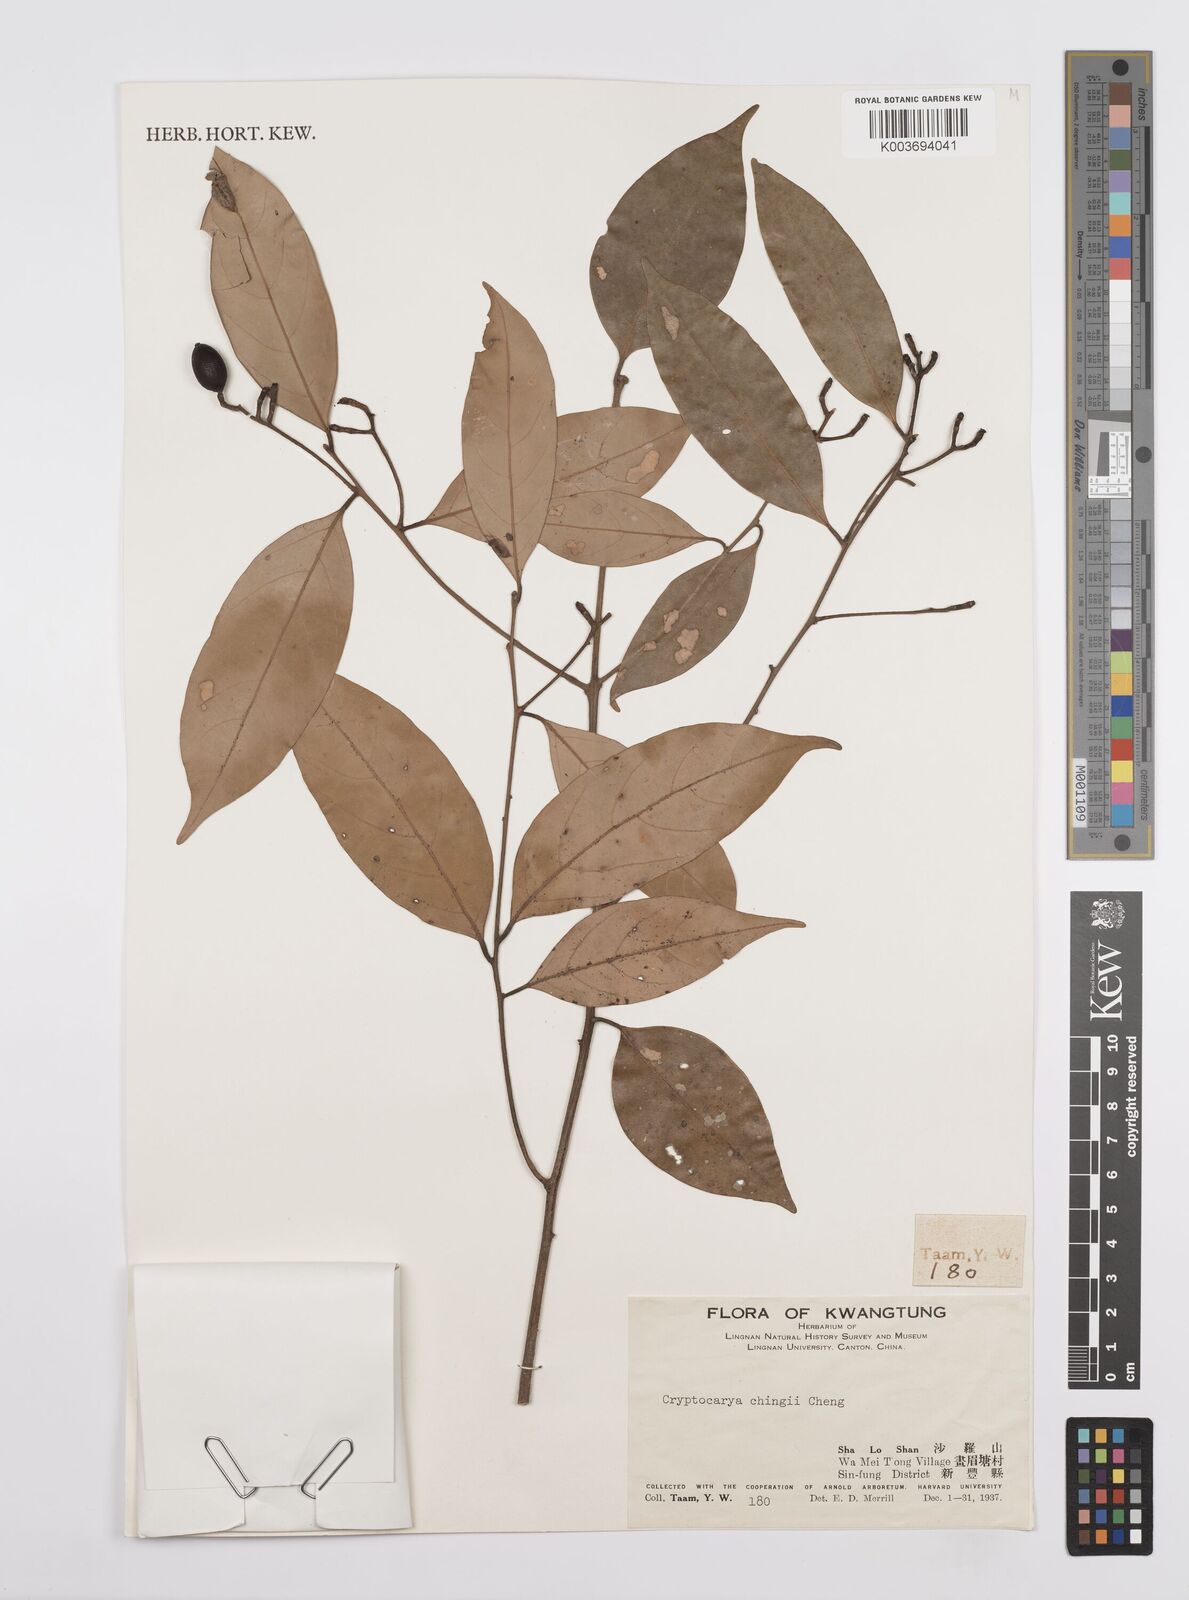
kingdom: Plantae
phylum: Tracheophyta
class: Magnoliopsida
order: Laurales
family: Lauraceae
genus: Cryptocarya
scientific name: Cryptocarya chingii
